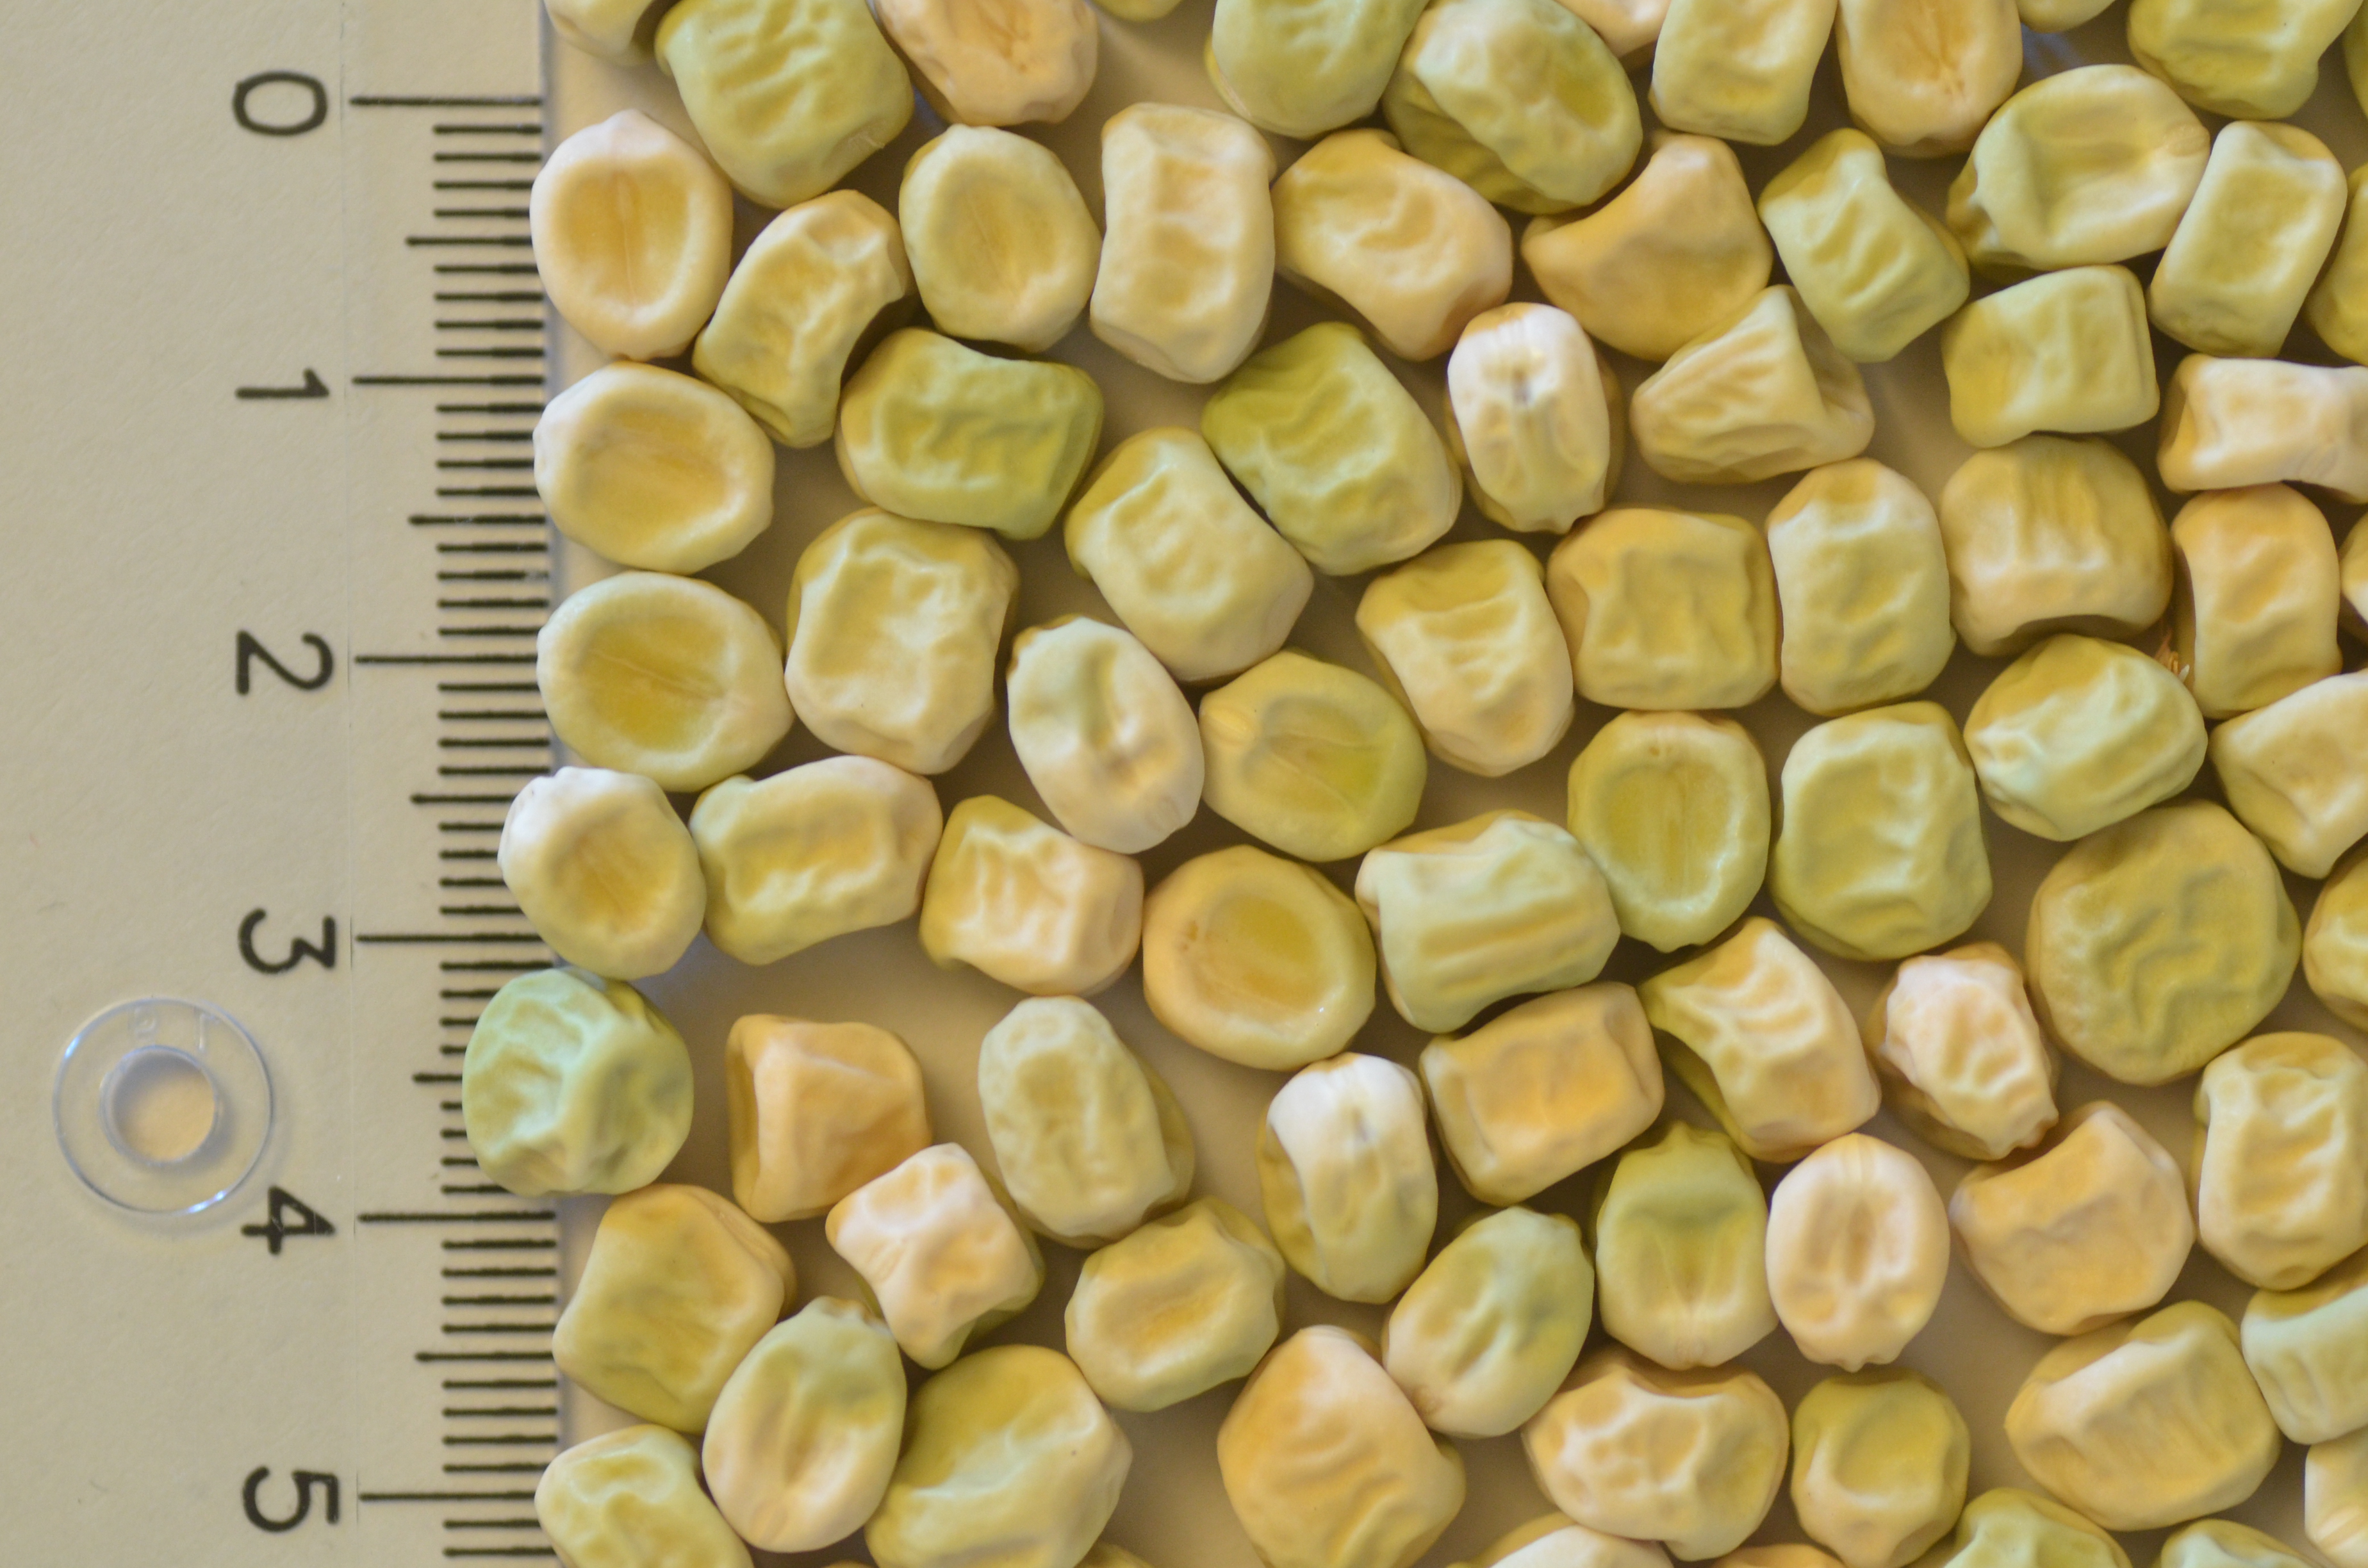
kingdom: Plantae
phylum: Tracheophyta
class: Magnoliopsida
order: Fabales
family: Fabaceae
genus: Lathyrus
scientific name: Lathyrus oleraceus
